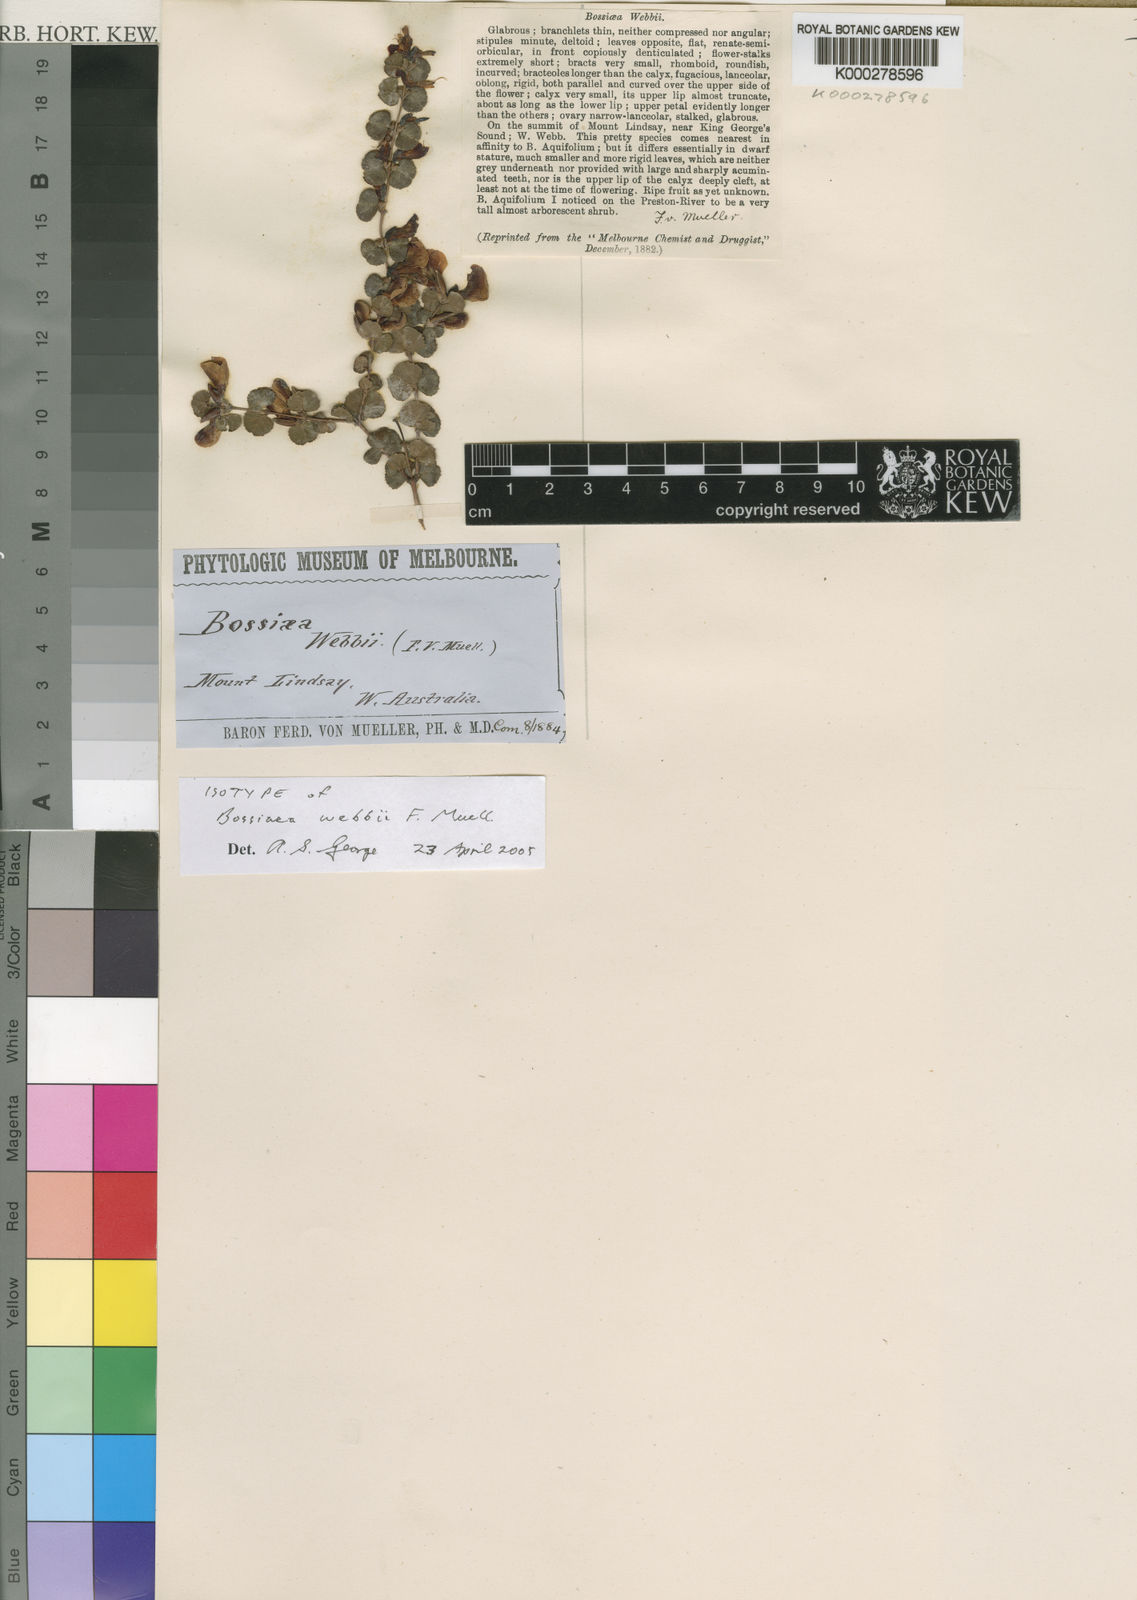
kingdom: Plantae
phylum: Tracheophyta
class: Magnoliopsida
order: Fabales
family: Fabaceae
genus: Bossiaea
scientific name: Bossiaea webbii
